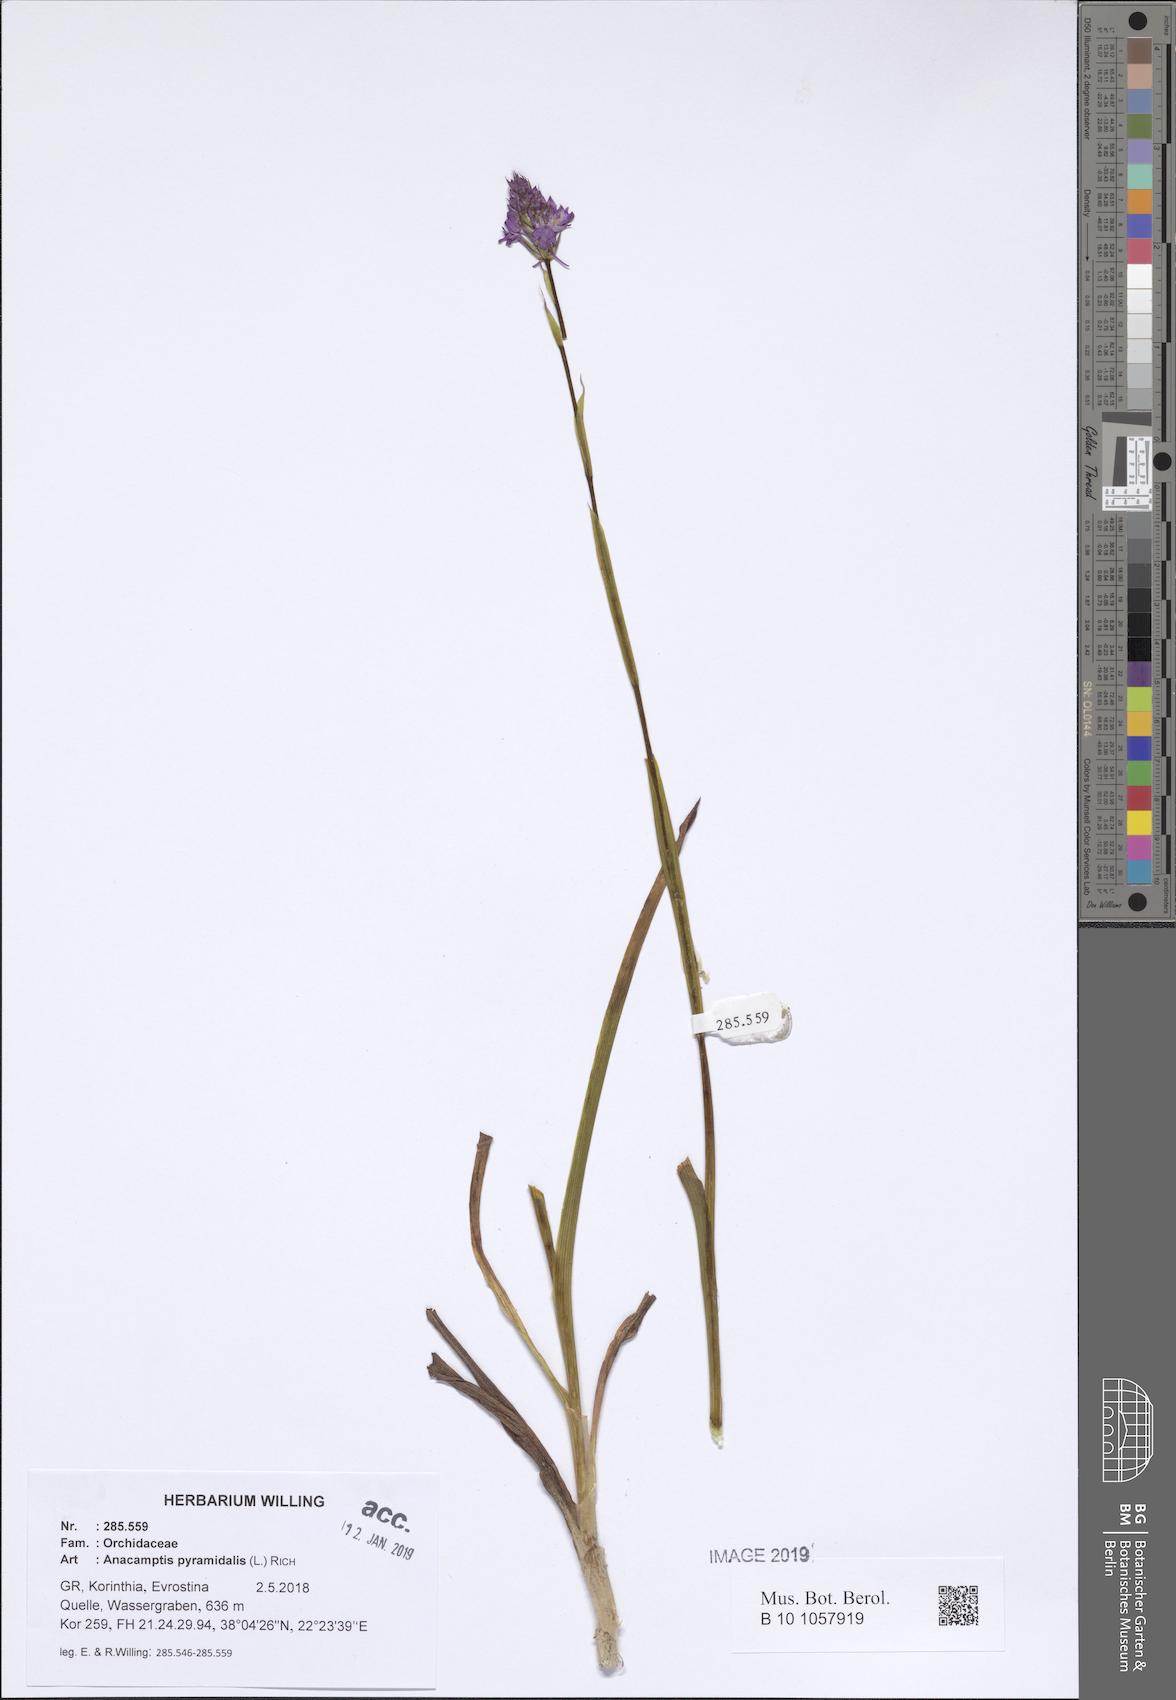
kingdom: Plantae
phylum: Tracheophyta
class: Liliopsida
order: Asparagales
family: Orchidaceae
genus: Anacamptis
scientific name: Anacamptis pyramidalis
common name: Pyramidal orchid
